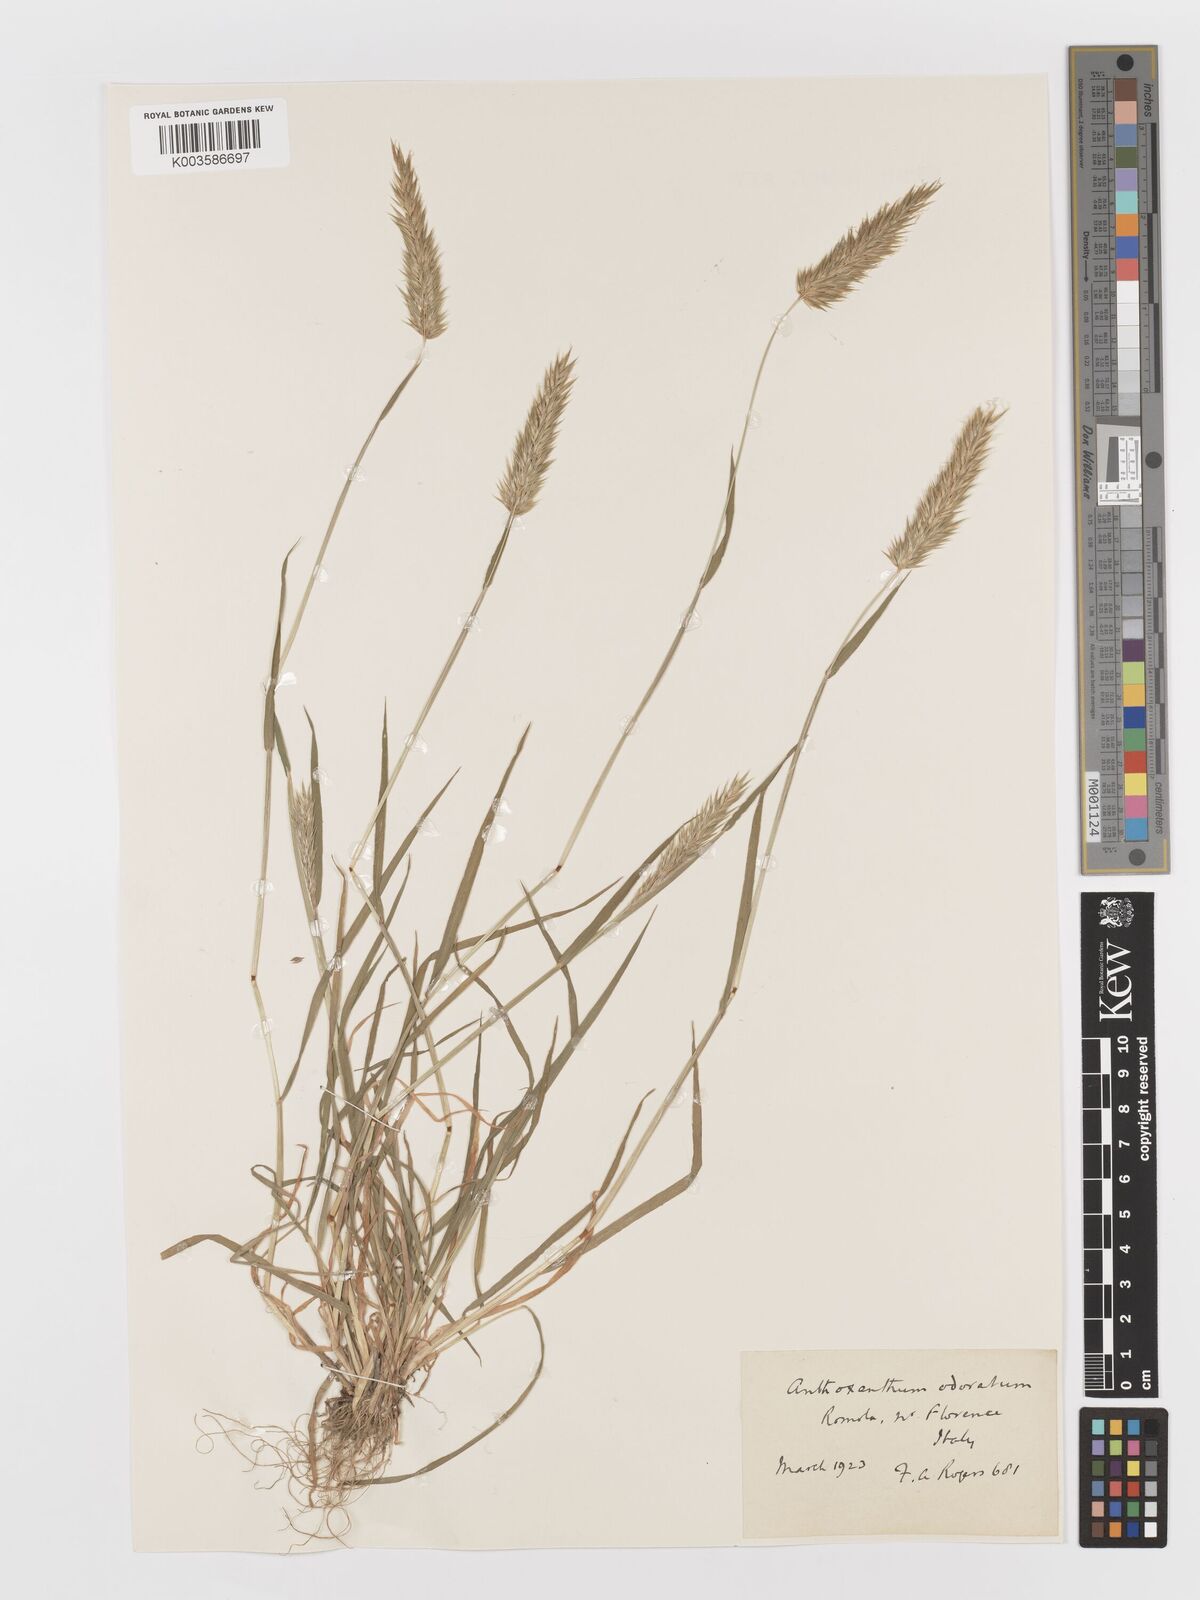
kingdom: Plantae
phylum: Tracheophyta
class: Liliopsida
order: Poales
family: Poaceae
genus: Anthoxanthum
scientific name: Anthoxanthum odoratum
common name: Sweet vernalgrass
